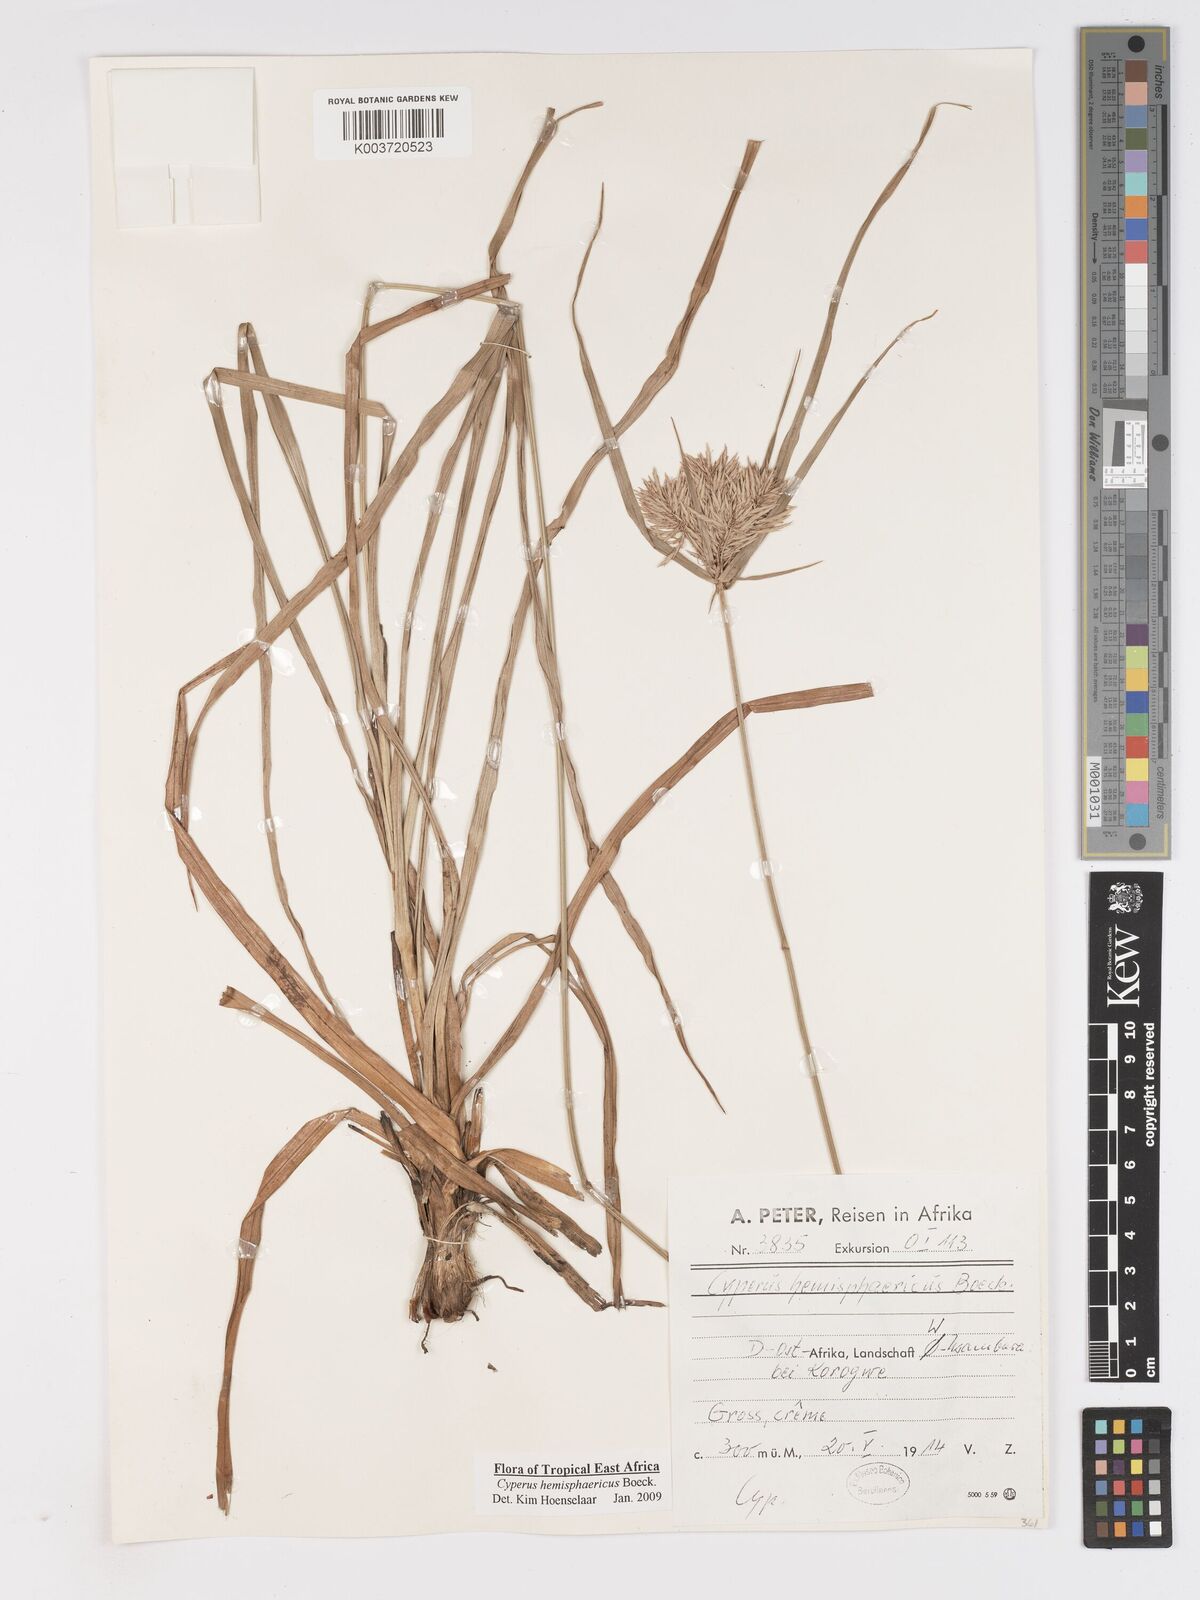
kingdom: Plantae
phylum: Tracheophyta
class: Liliopsida
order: Poales
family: Cyperaceae
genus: Cyperus
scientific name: Cyperus hemisphaericus
